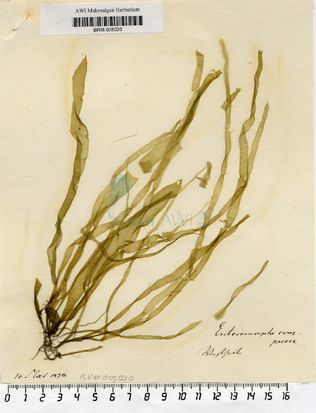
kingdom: Plantae
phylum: Chlorophyta
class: Ulvophyceae
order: Ulvales
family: Ulvaceae
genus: Ulva
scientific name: Ulva compressa
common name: Thread weed
